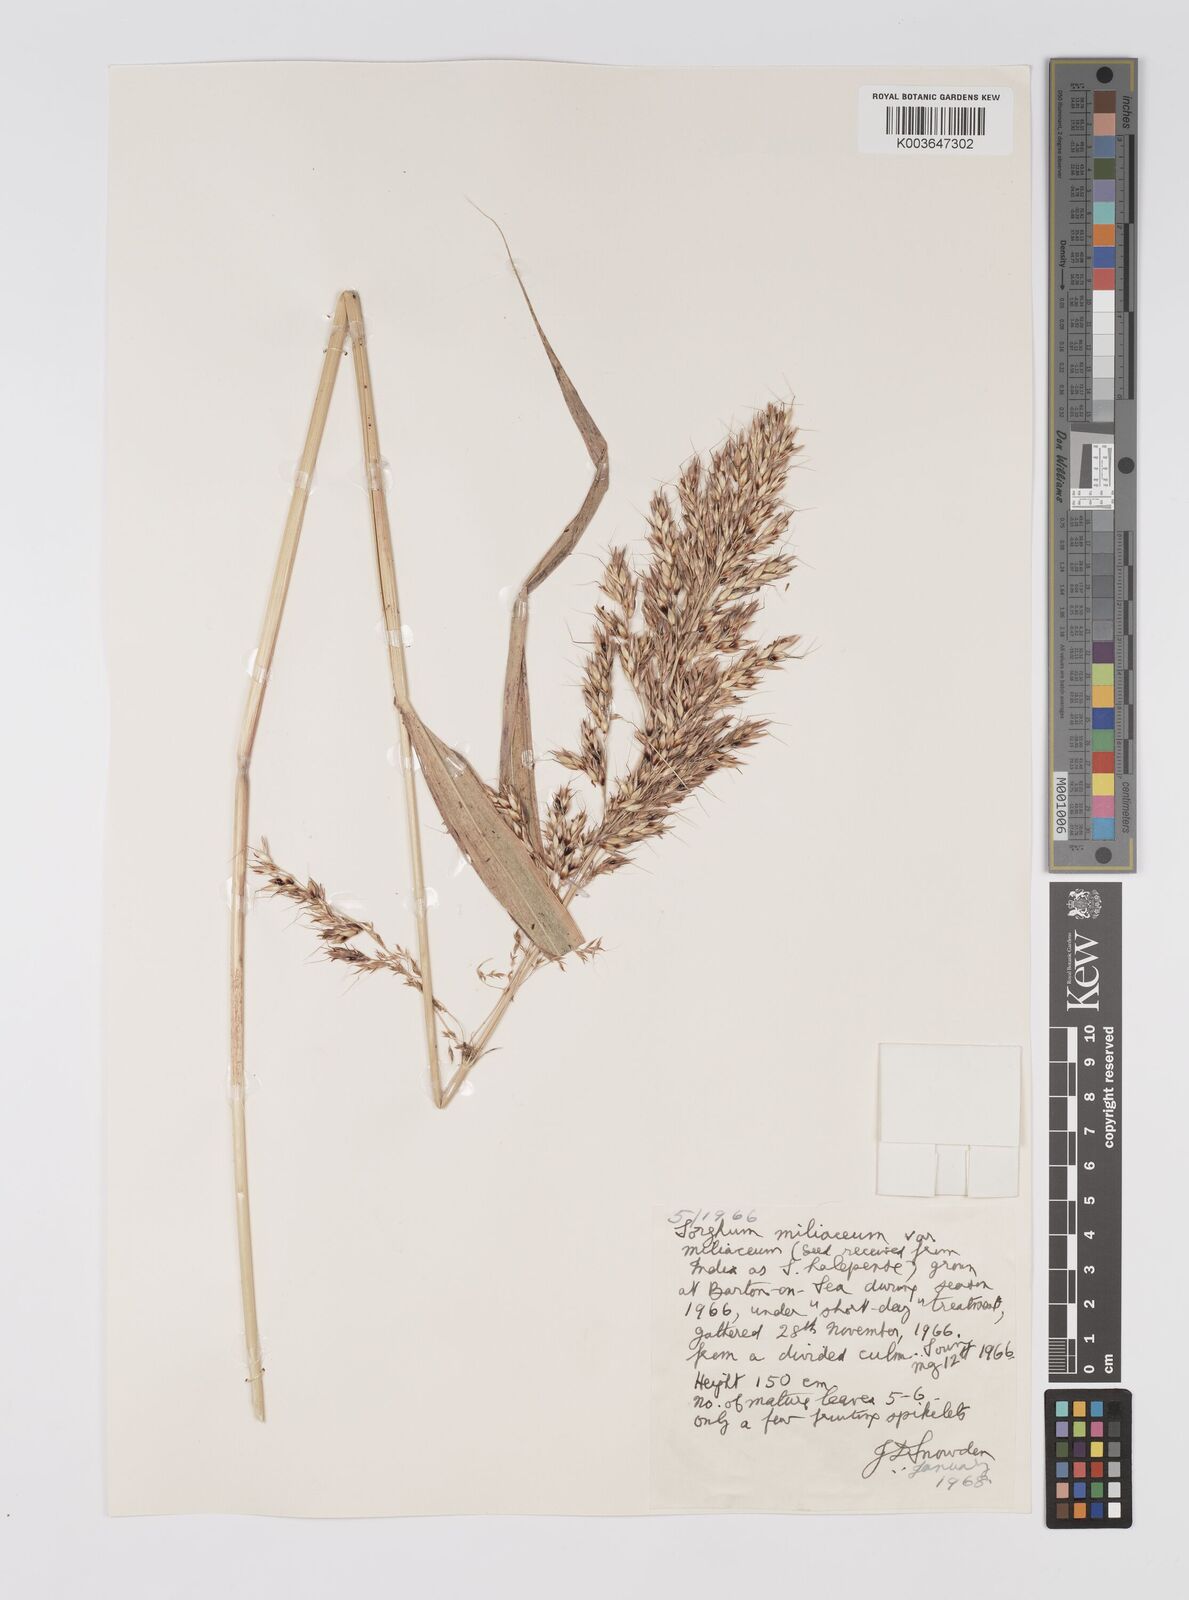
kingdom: Plantae
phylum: Tracheophyta
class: Liliopsida
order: Poales
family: Poaceae
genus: Sorghum
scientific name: Sorghum halepense
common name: Johnson-grass
